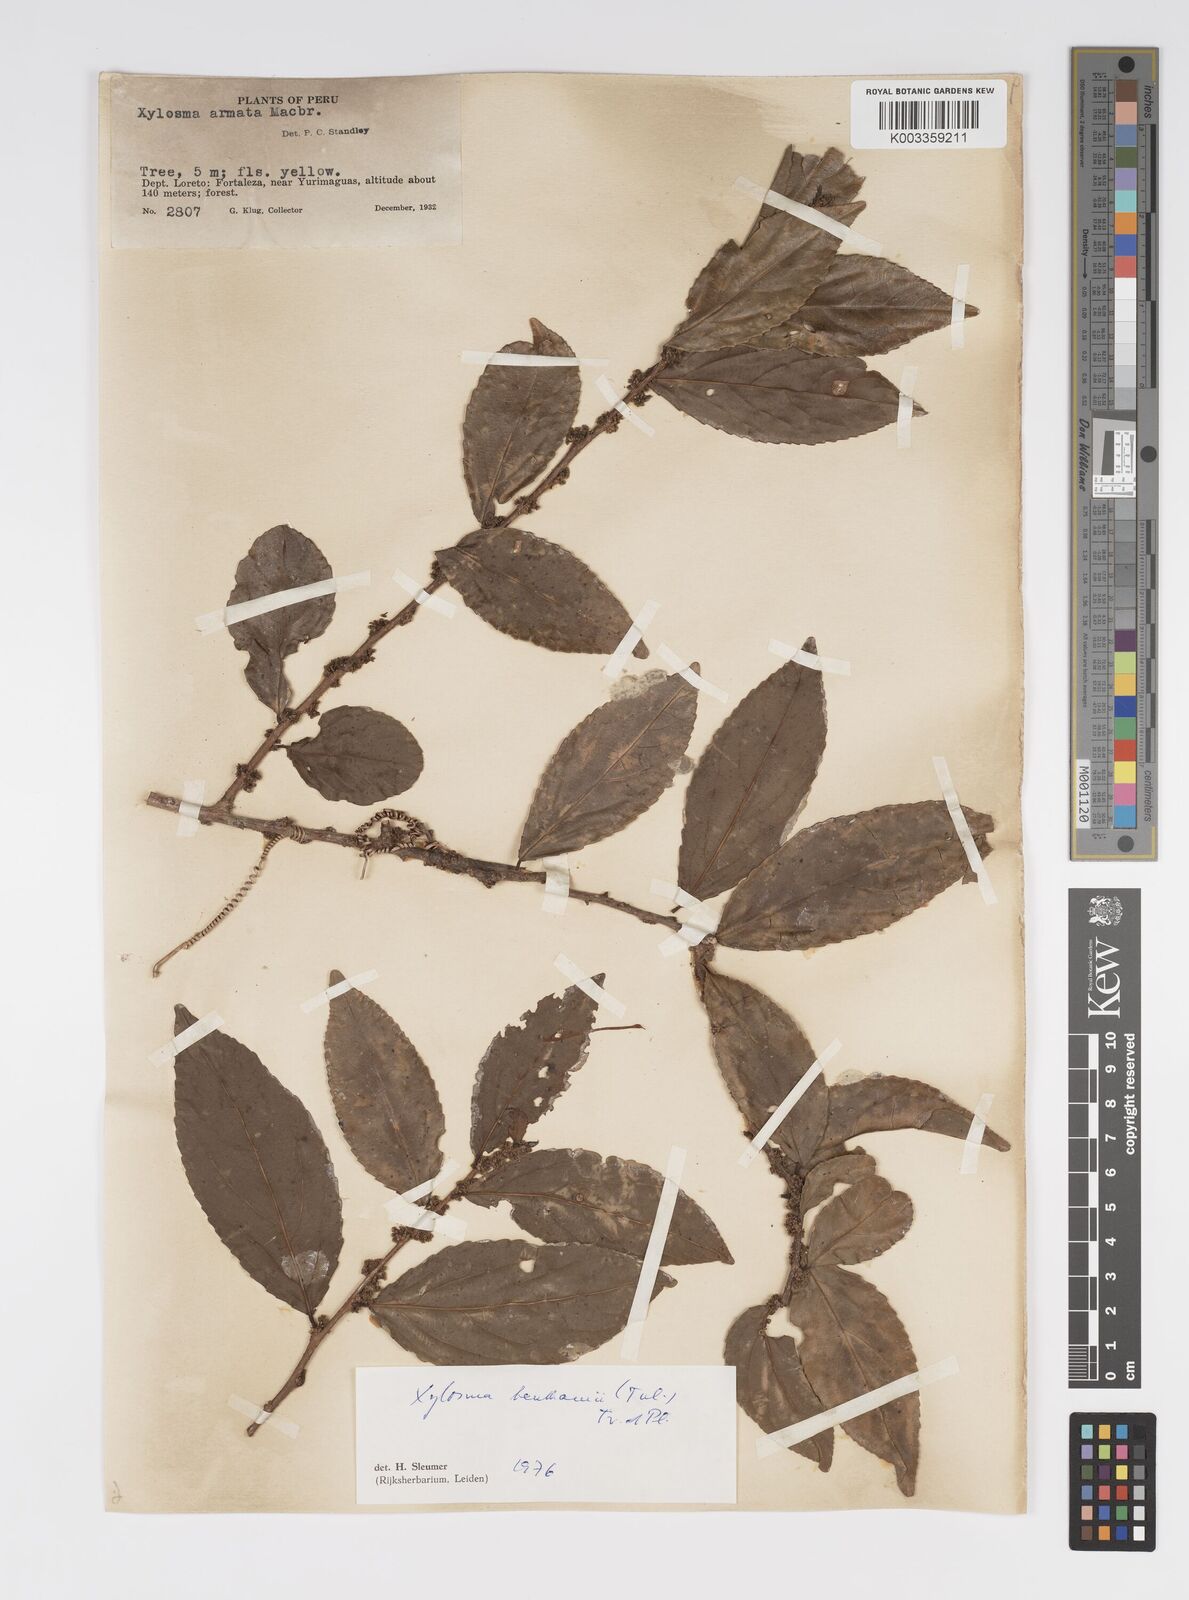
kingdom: Plantae
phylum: Tracheophyta
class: Magnoliopsida
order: Malpighiales
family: Salicaceae
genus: Xylosma
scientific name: Xylosma benthamii
